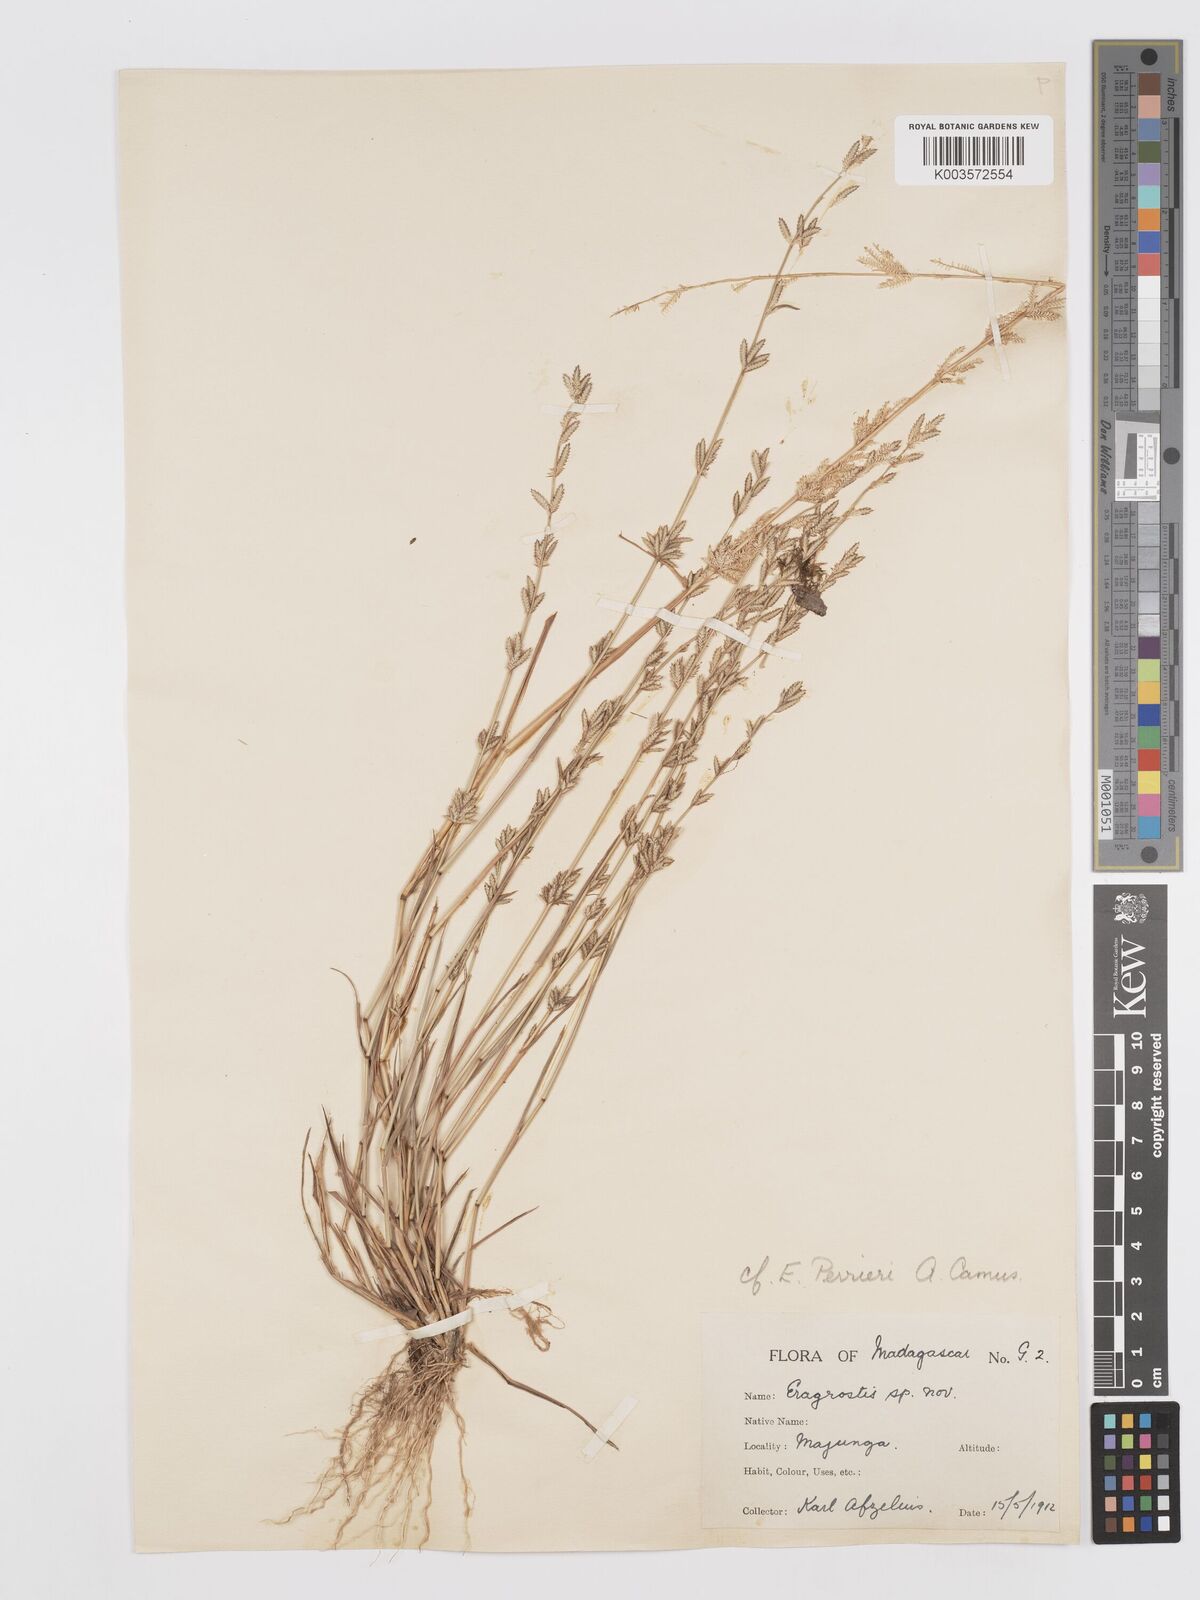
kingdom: Plantae
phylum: Tracheophyta
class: Liliopsida
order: Poales
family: Poaceae
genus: Eragrostis
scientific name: Eragrostis perrieri
